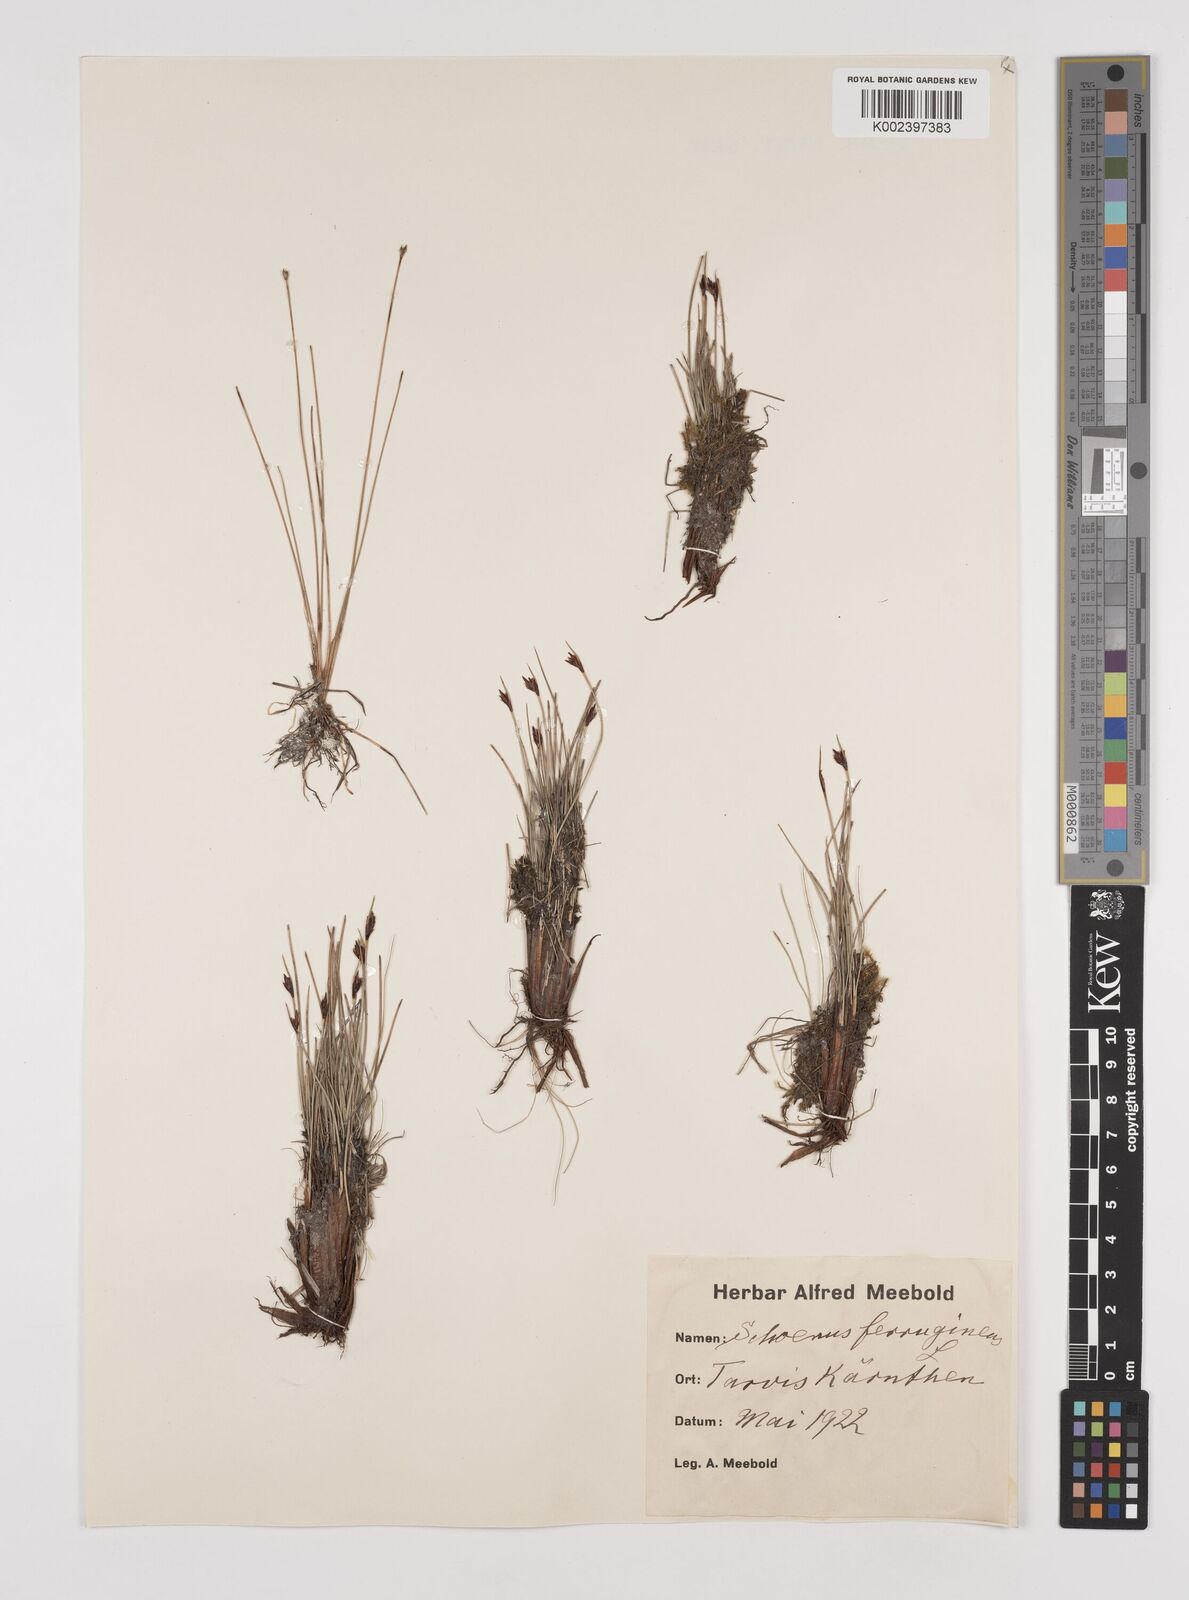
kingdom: Plantae
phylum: Tracheophyta
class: Liliopsida
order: Poales
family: Cyperaceae
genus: Schoenus
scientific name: Schoenus ferrugineus
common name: Brown bog-rush
